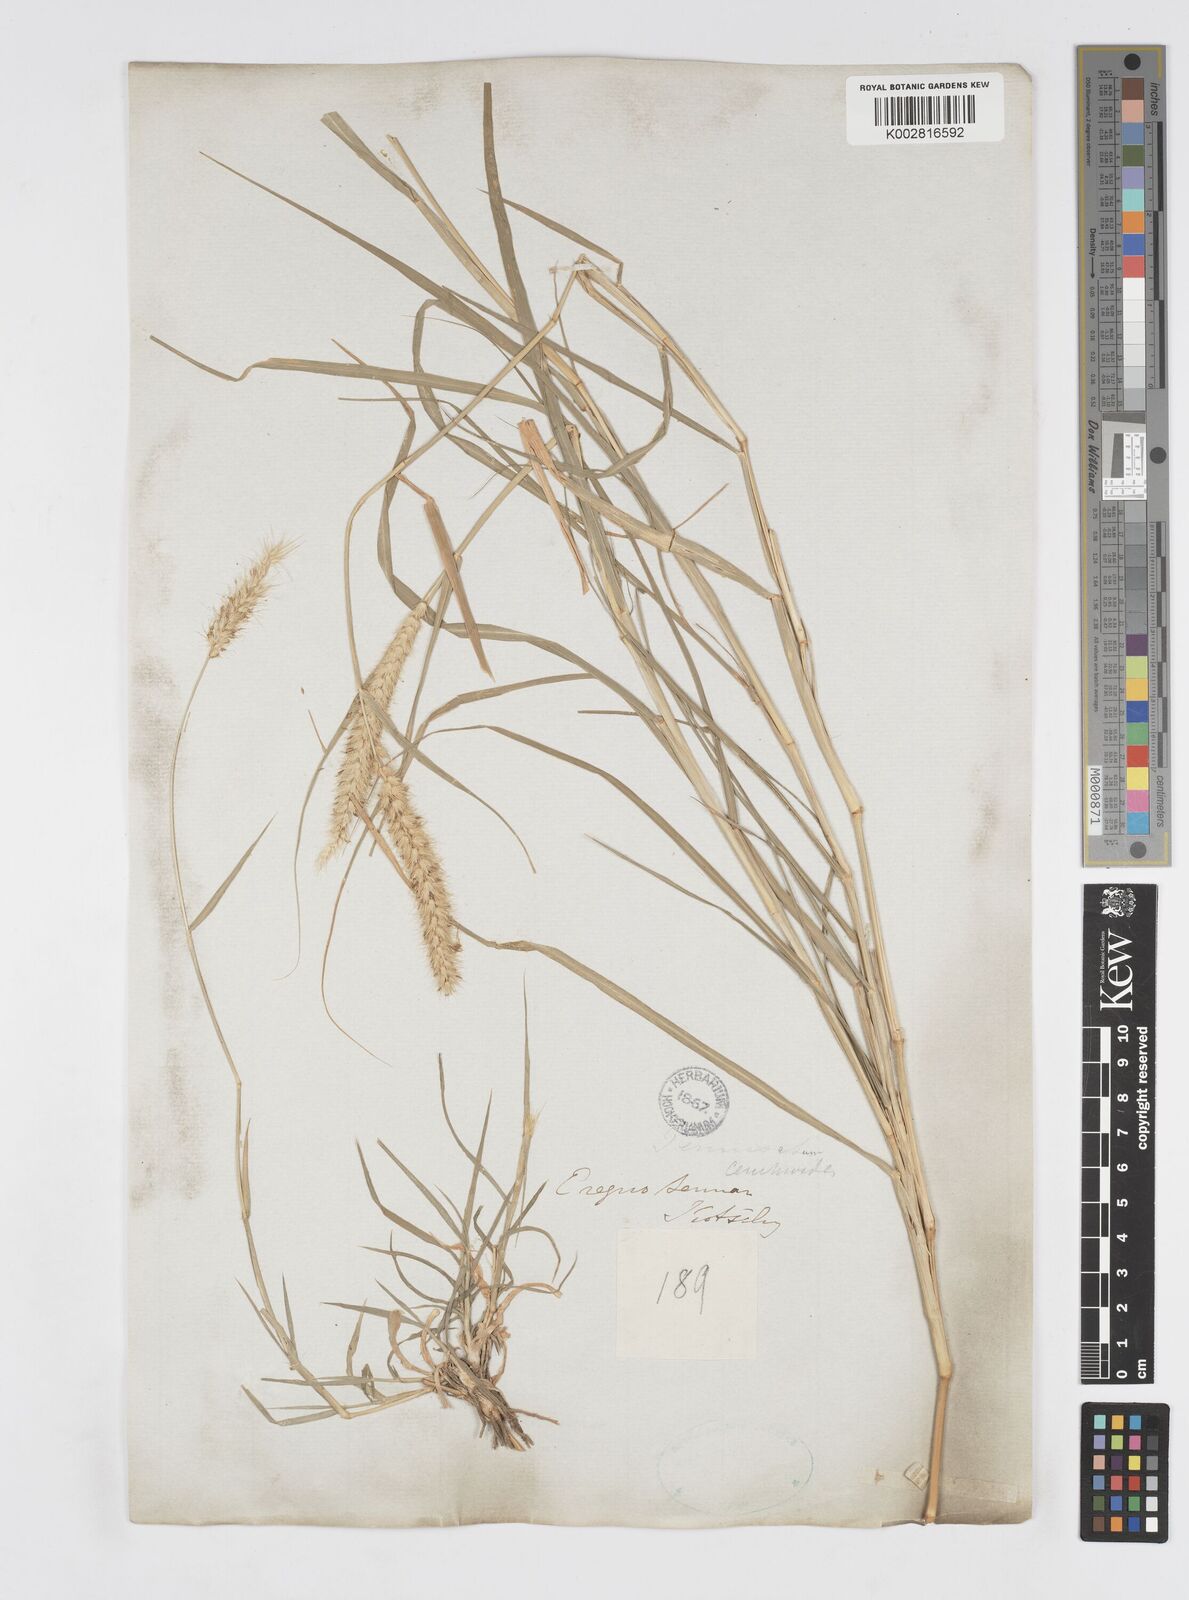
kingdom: Plantae
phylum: Tracheophyta
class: Liliopsida
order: Poales
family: Poaceae
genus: Cenchrus
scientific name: Cenchrus ciliaris
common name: Buffelgrass
